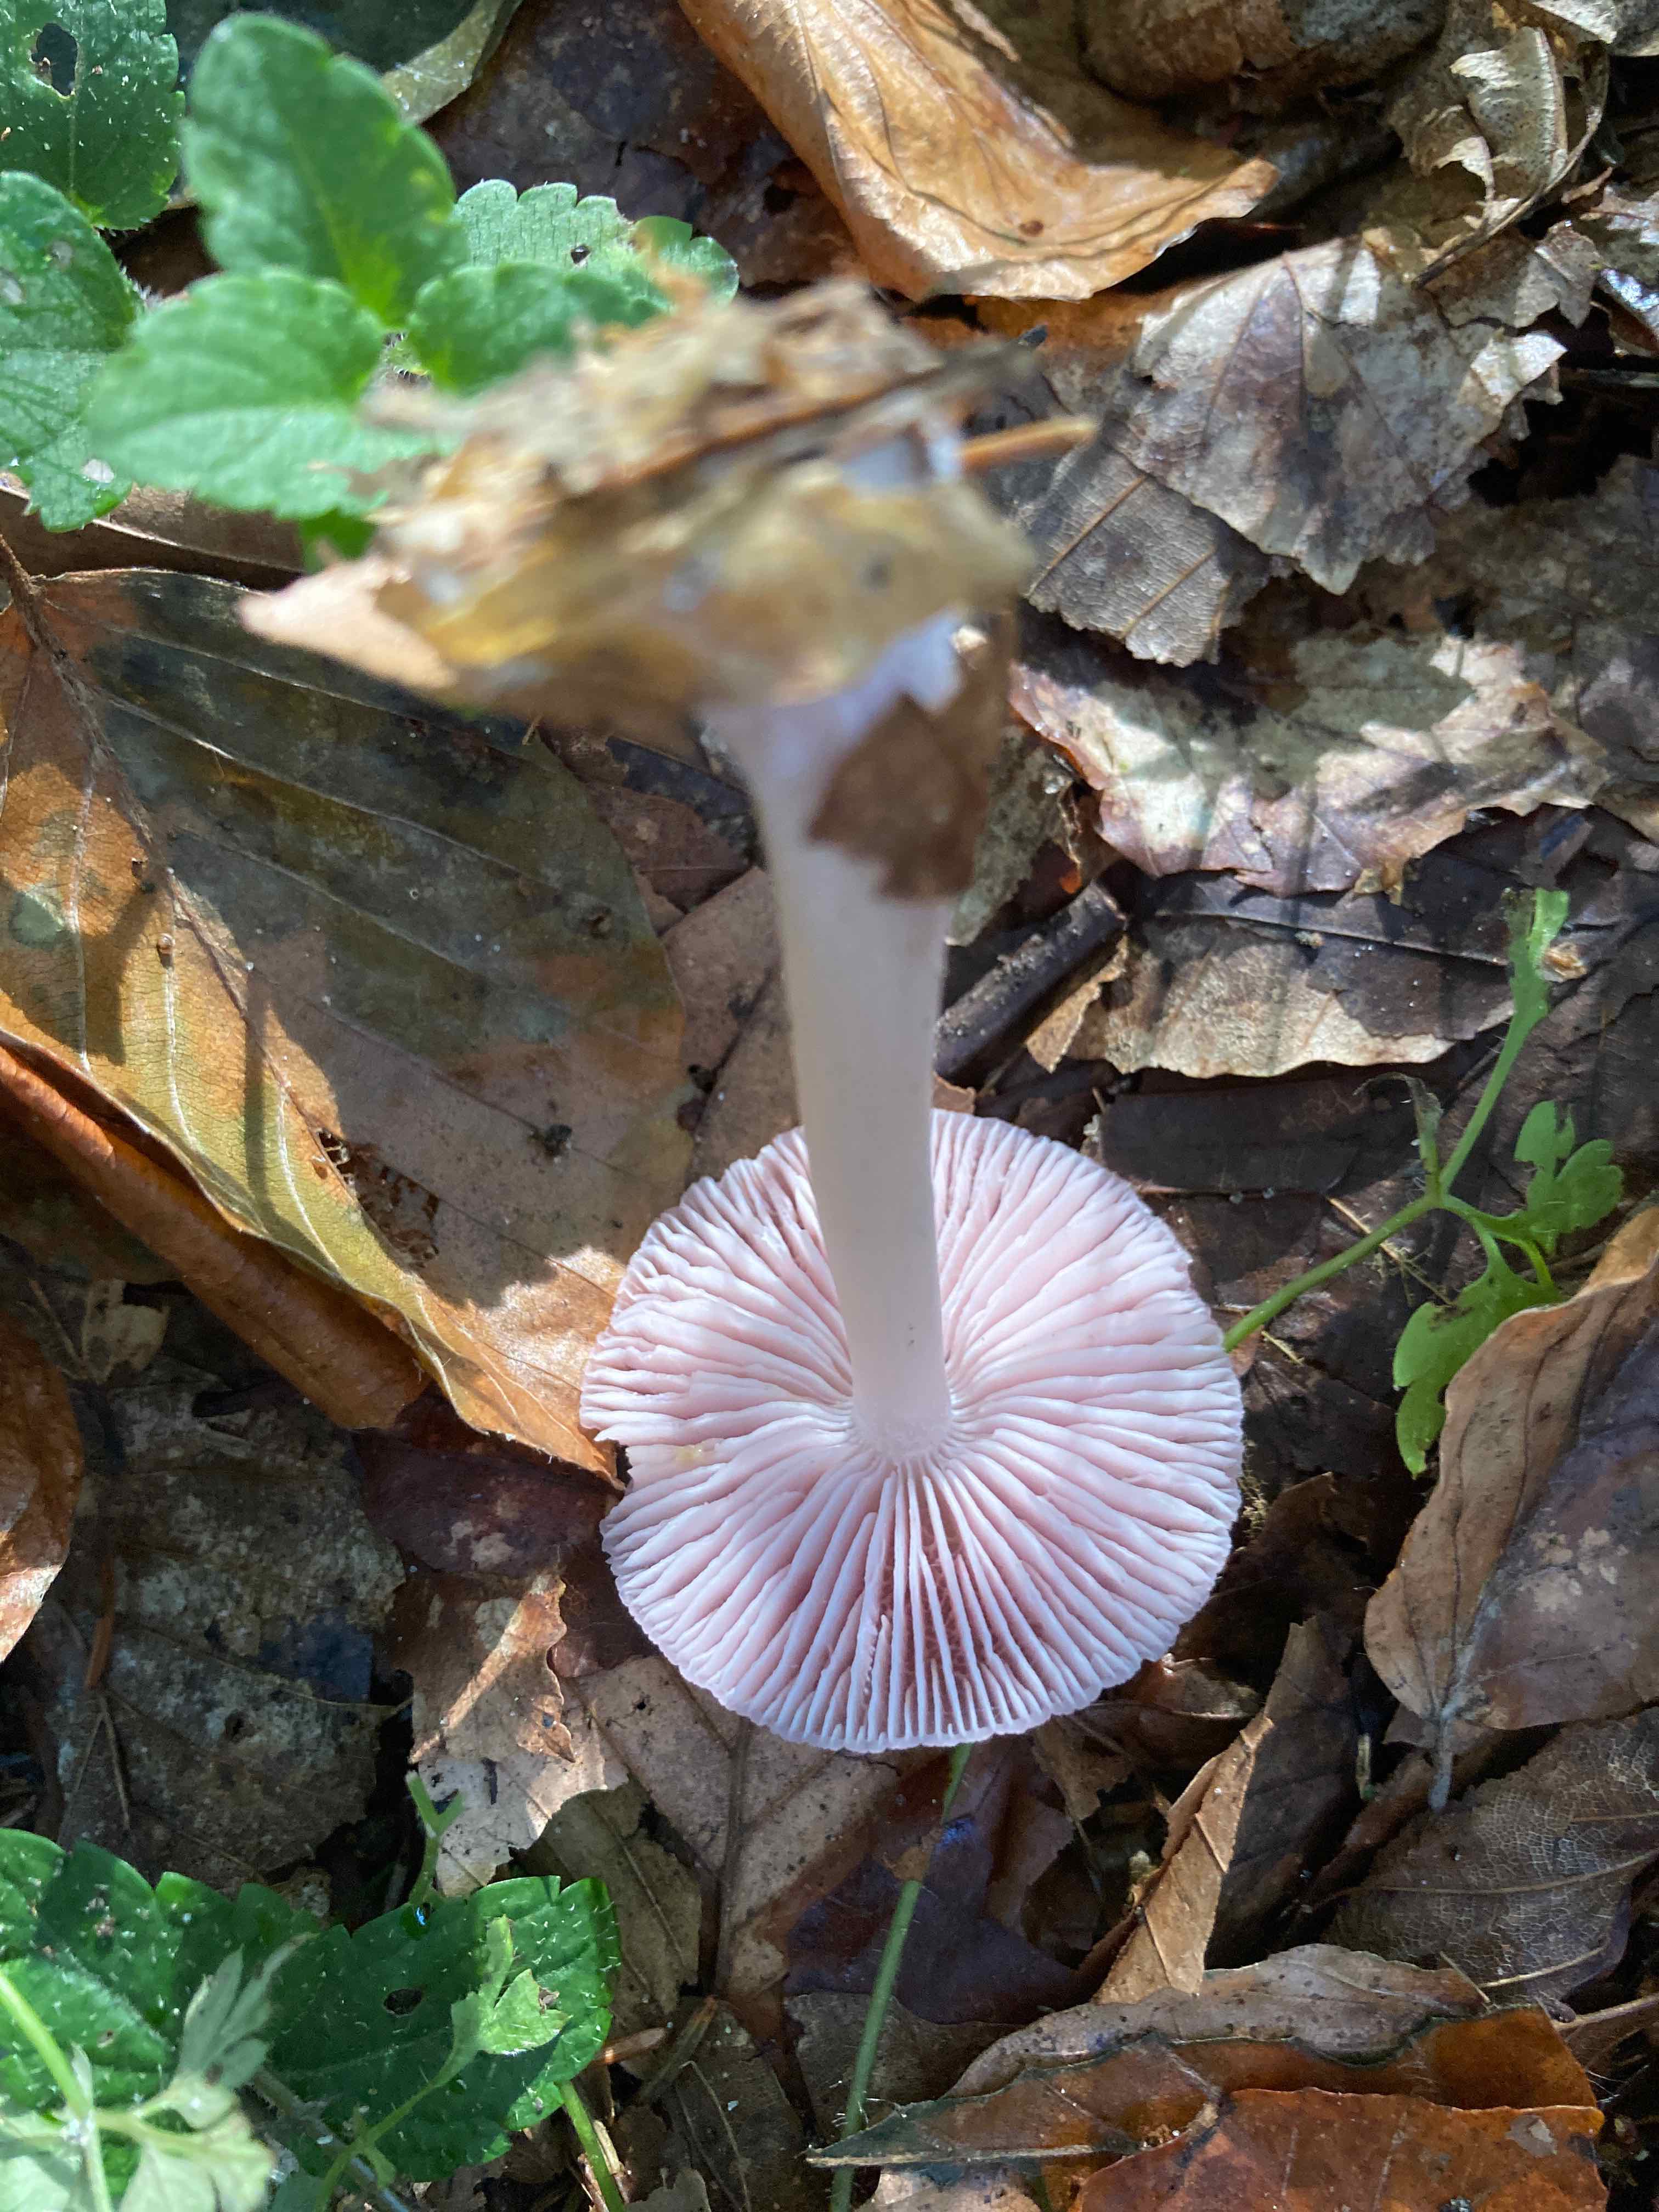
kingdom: Fungi
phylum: Basidiomycota
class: Agaricomycetes
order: Agaricales
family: Mycenaceae
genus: Mycena
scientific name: Mycena rosea
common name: rosa huesvamp
